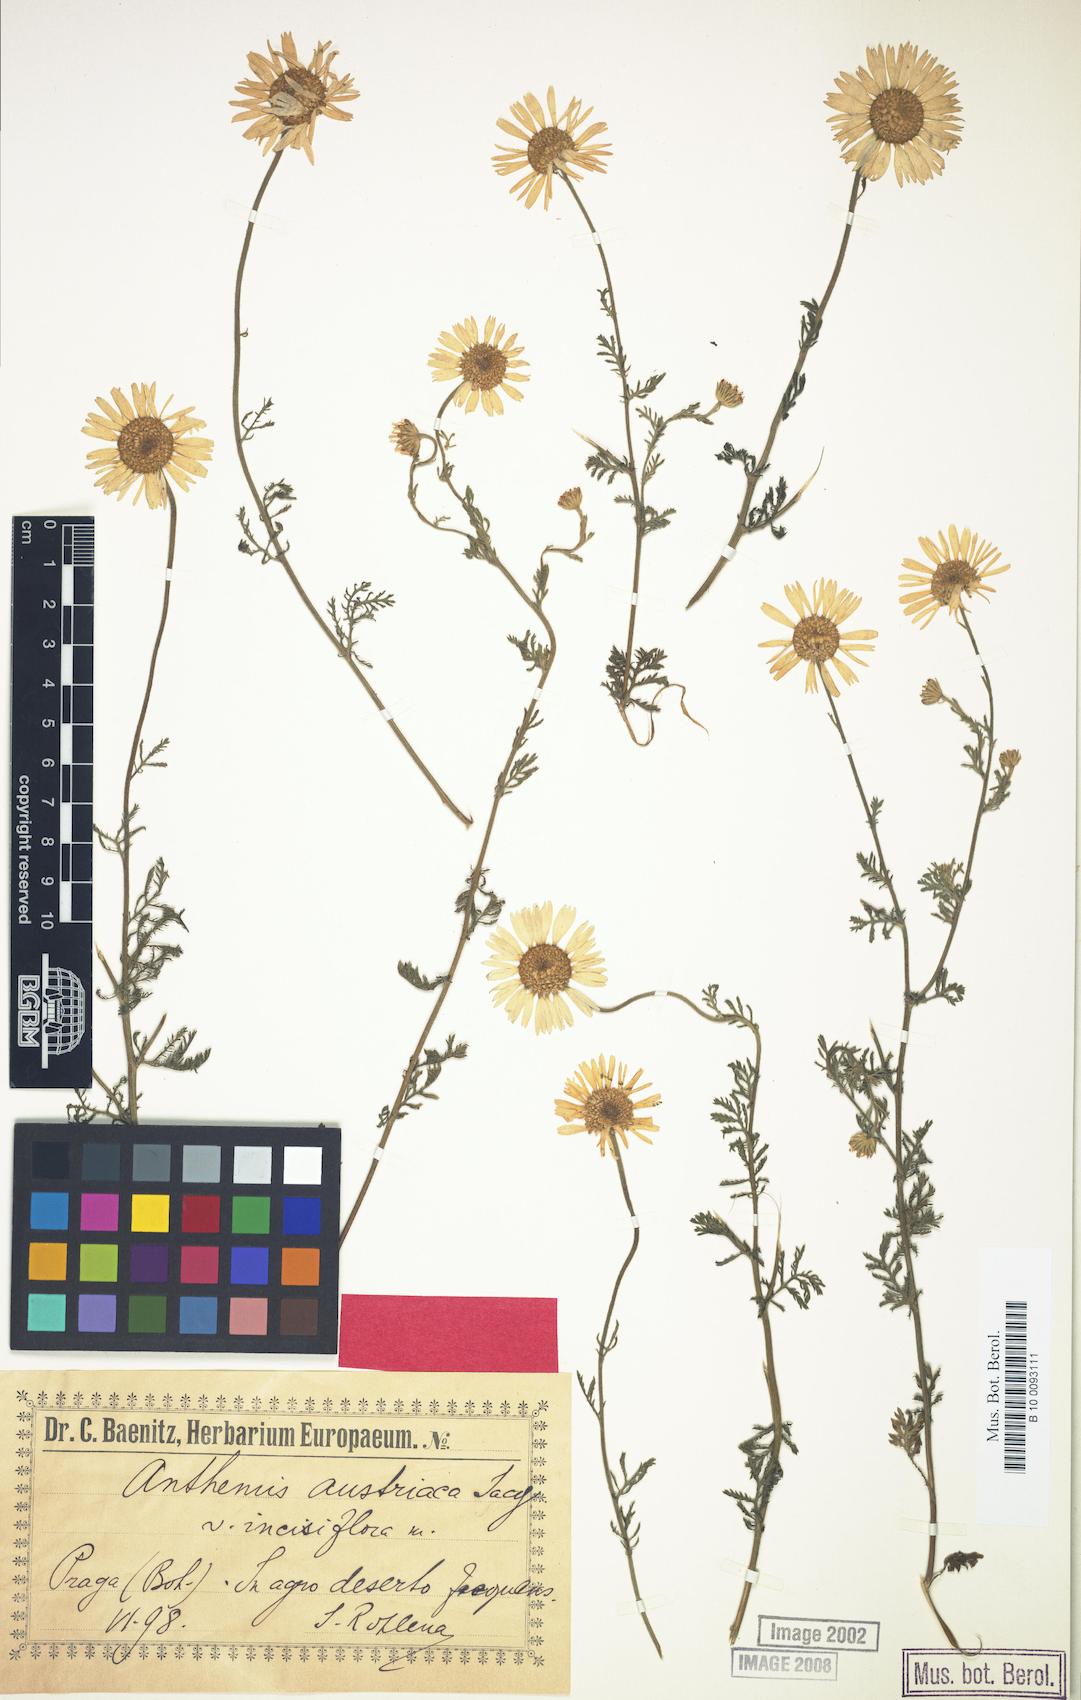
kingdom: Plantae
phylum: Tracheophyta
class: Magnoliopsida
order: Asterales
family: Asteraceae
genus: Cota
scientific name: Cota austriaca
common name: Austrian chamomile
